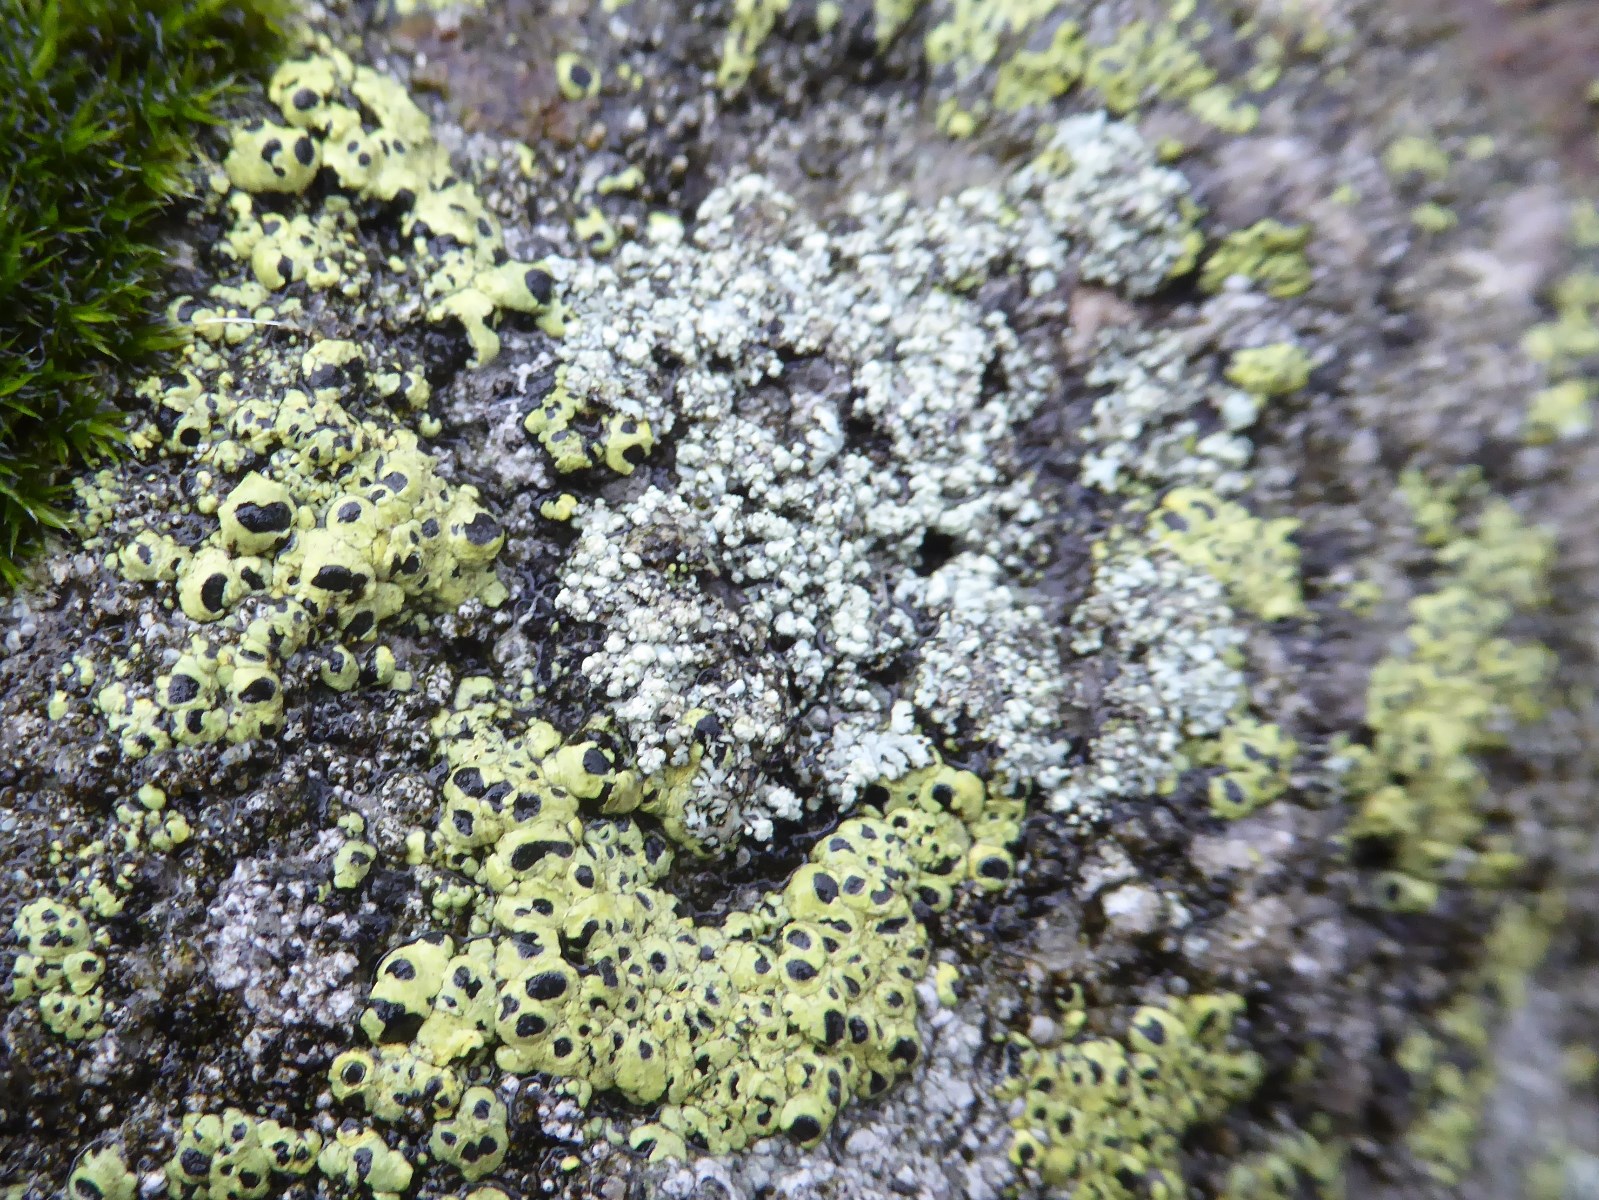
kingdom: Fungi
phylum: Ascomycota
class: Lecanoromycetes
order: Rhizocarpales
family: Rhizocarpaceae
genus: Rhizocarpon
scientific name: Rhizocarpon lecanorinum
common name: krave-landkortlav
